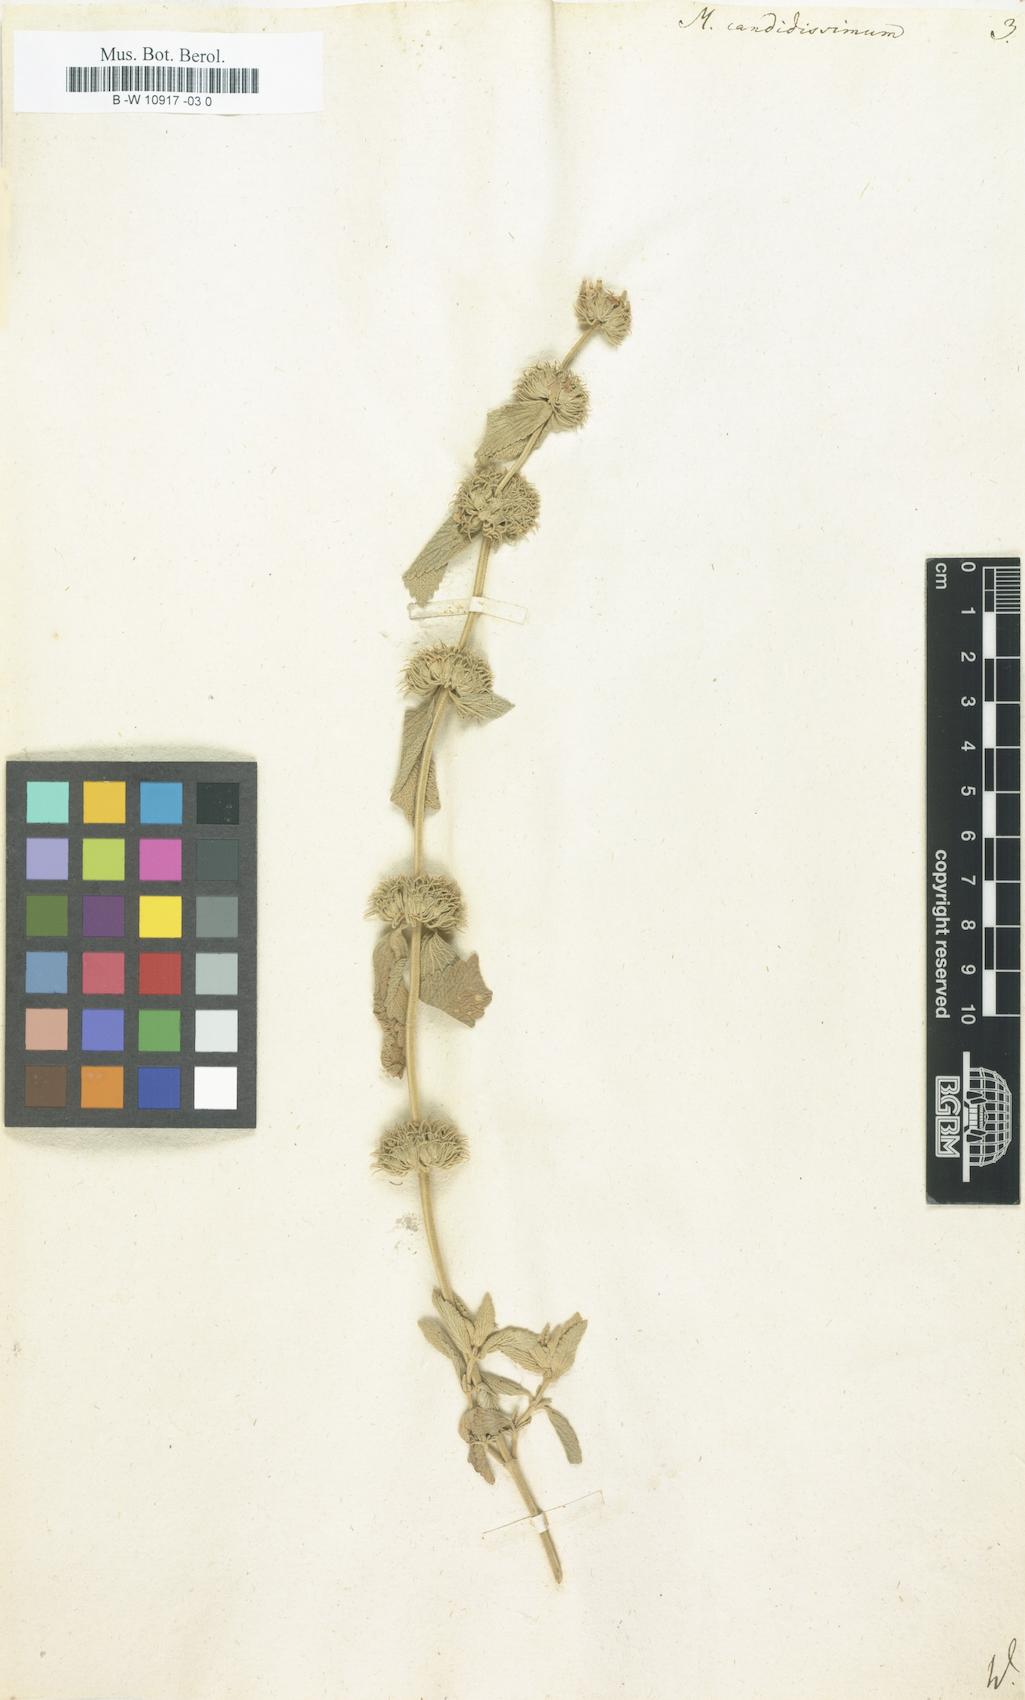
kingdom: Plantae
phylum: Tracheophyta
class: Magnoliopsida
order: Lamiales
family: Lamiaceae
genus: Marrubium
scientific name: Marrubium peregrinum
